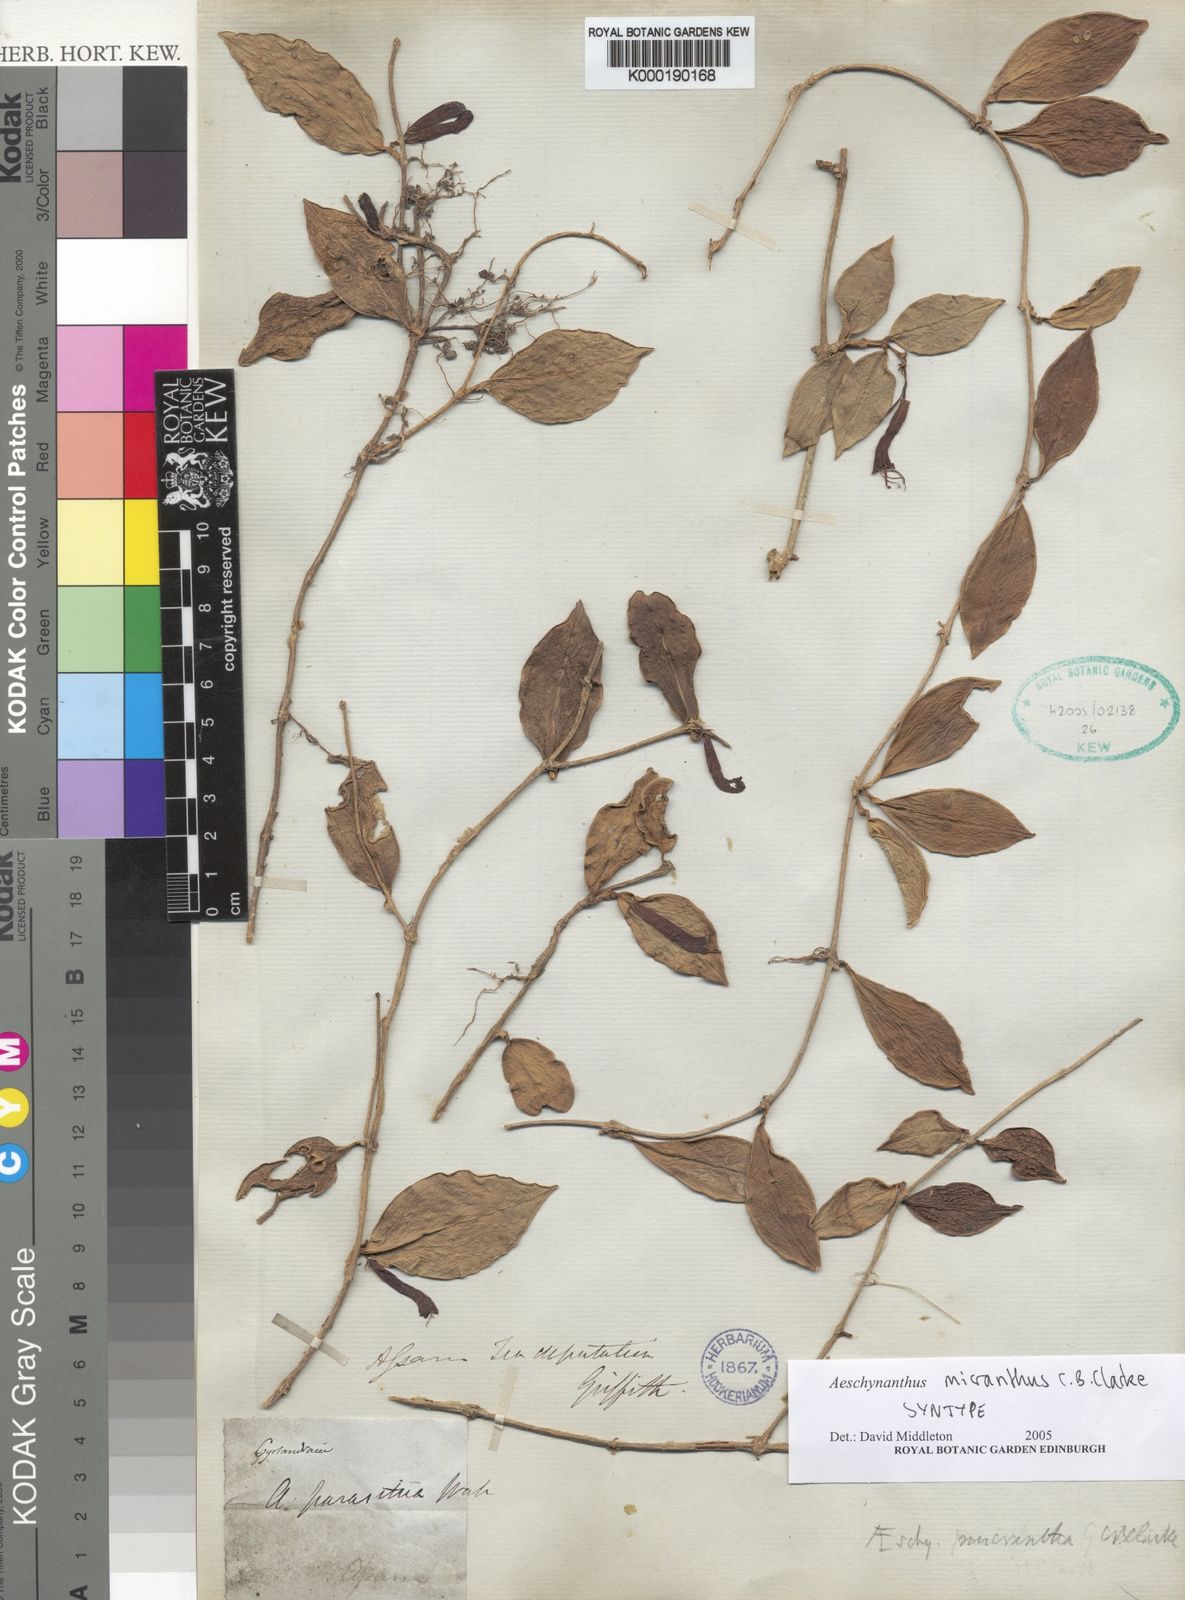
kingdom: Plantae
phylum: Tracheophyta
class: Magnoliopsida
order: Lamiales
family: Gesneriaceae
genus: Aeschynanthus
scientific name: Aeschynanthus micranthus
